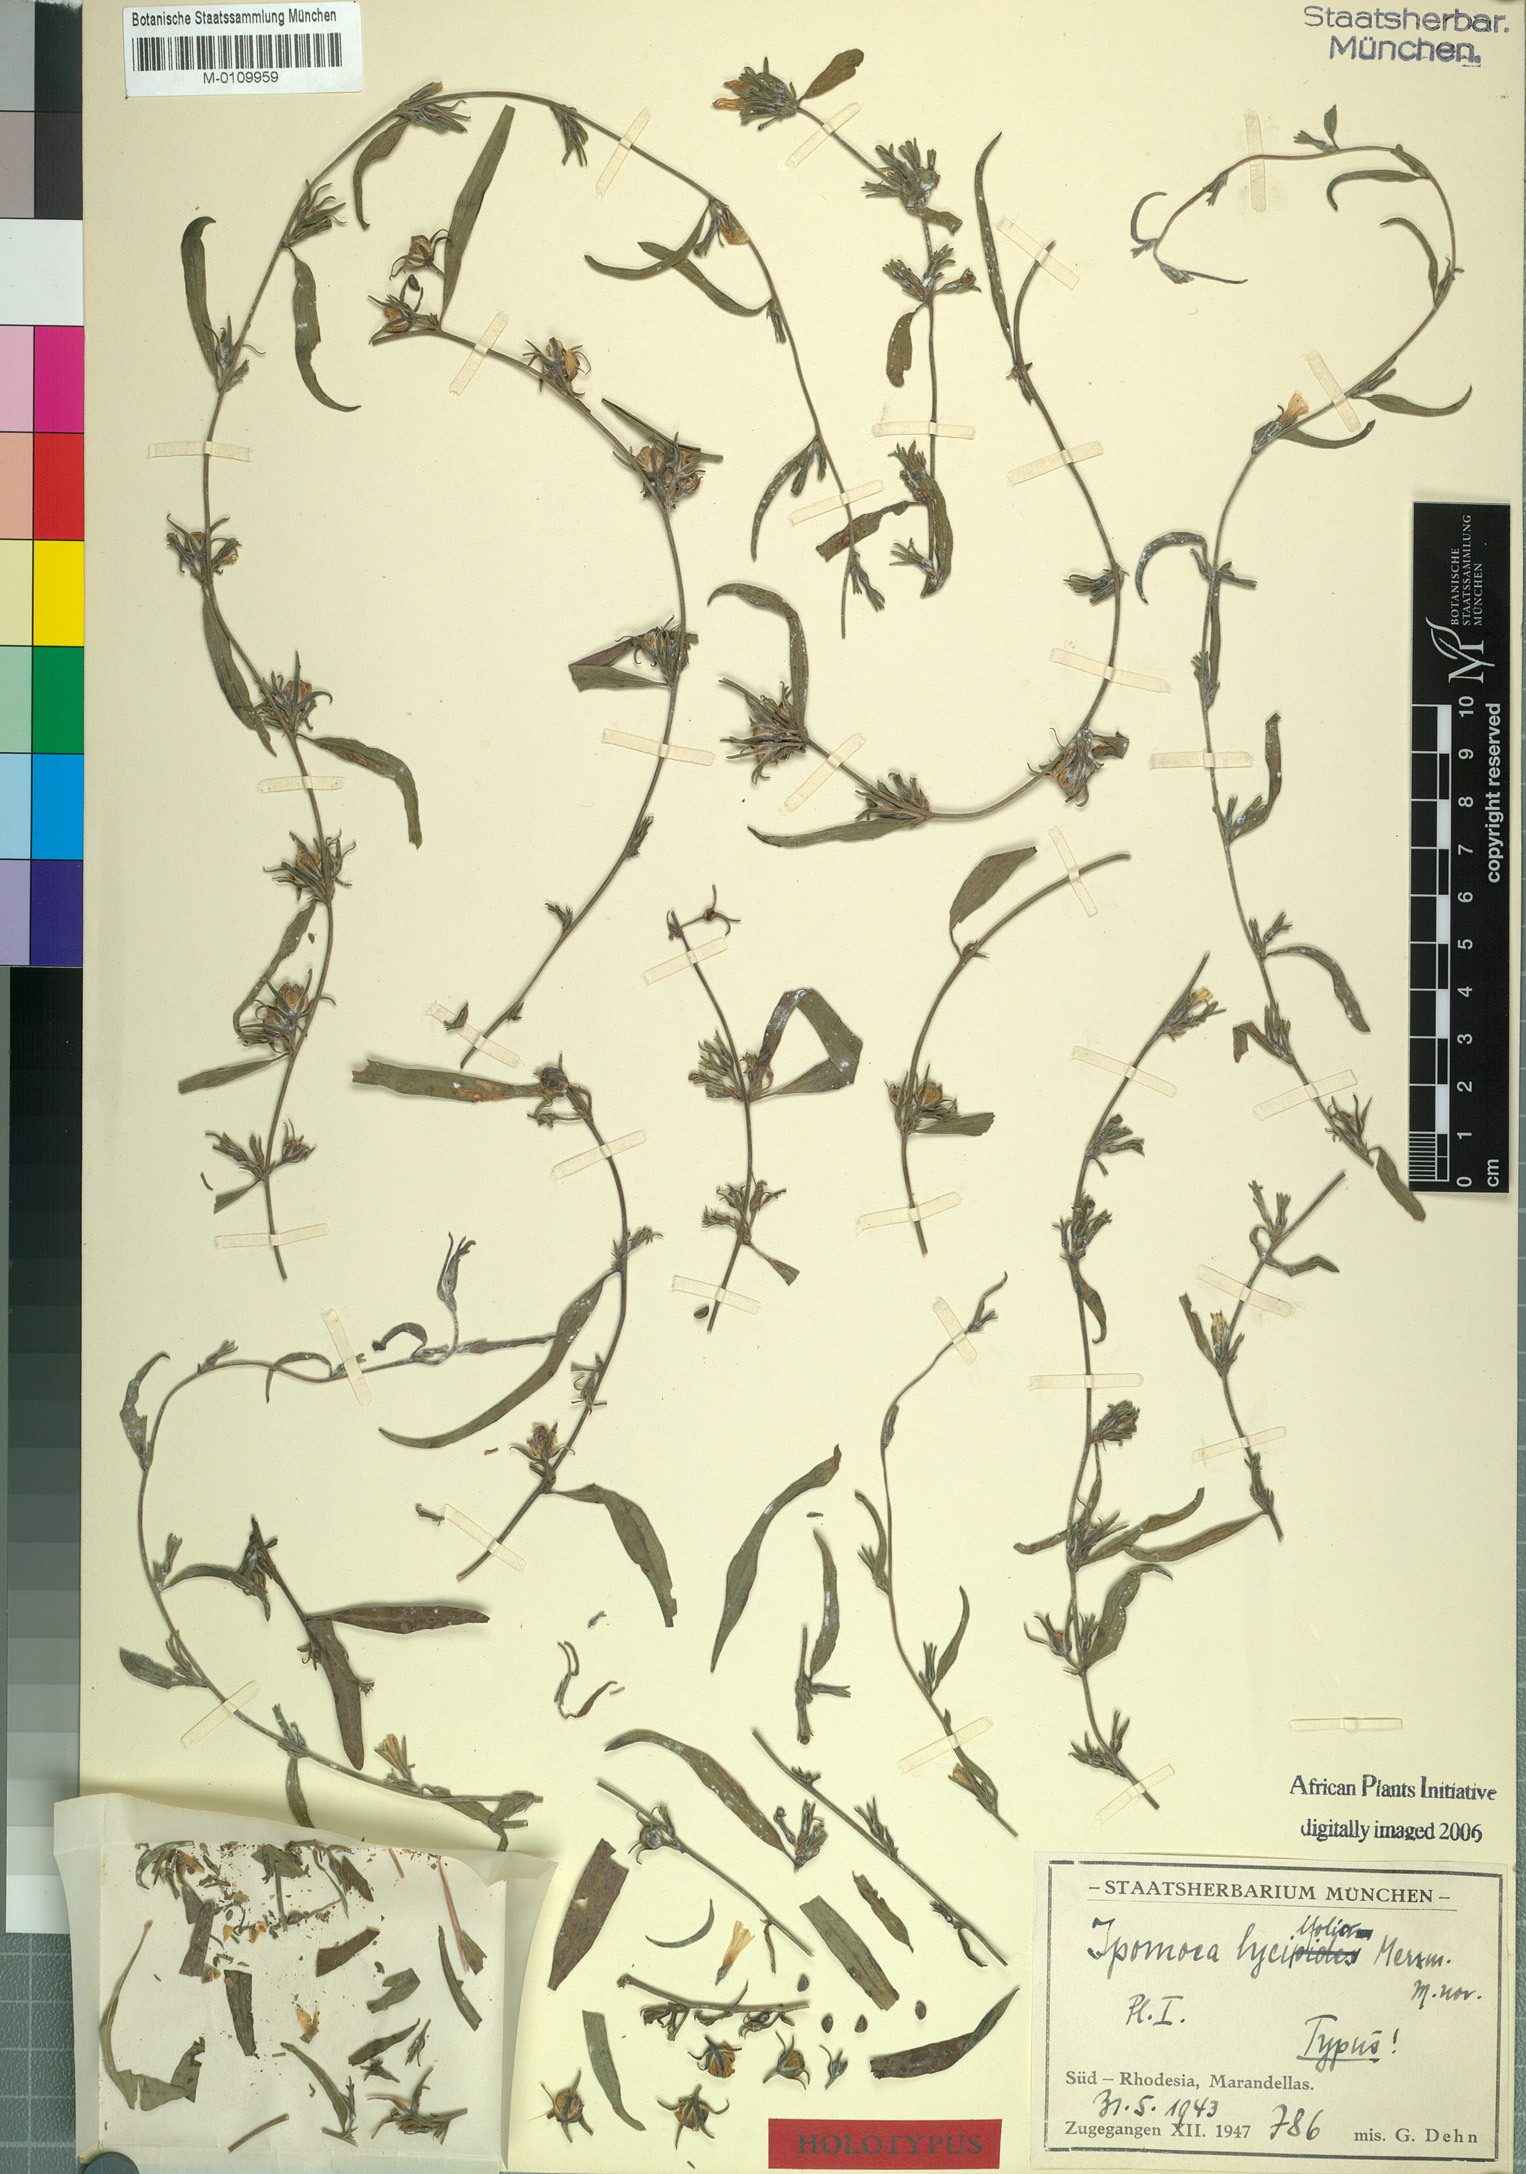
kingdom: Plantae
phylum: Tracheophyta
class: Magnoliopsida
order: Solanales
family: Convolvulaceae
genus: Ipomoea
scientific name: Ipomoea gracilisepala
